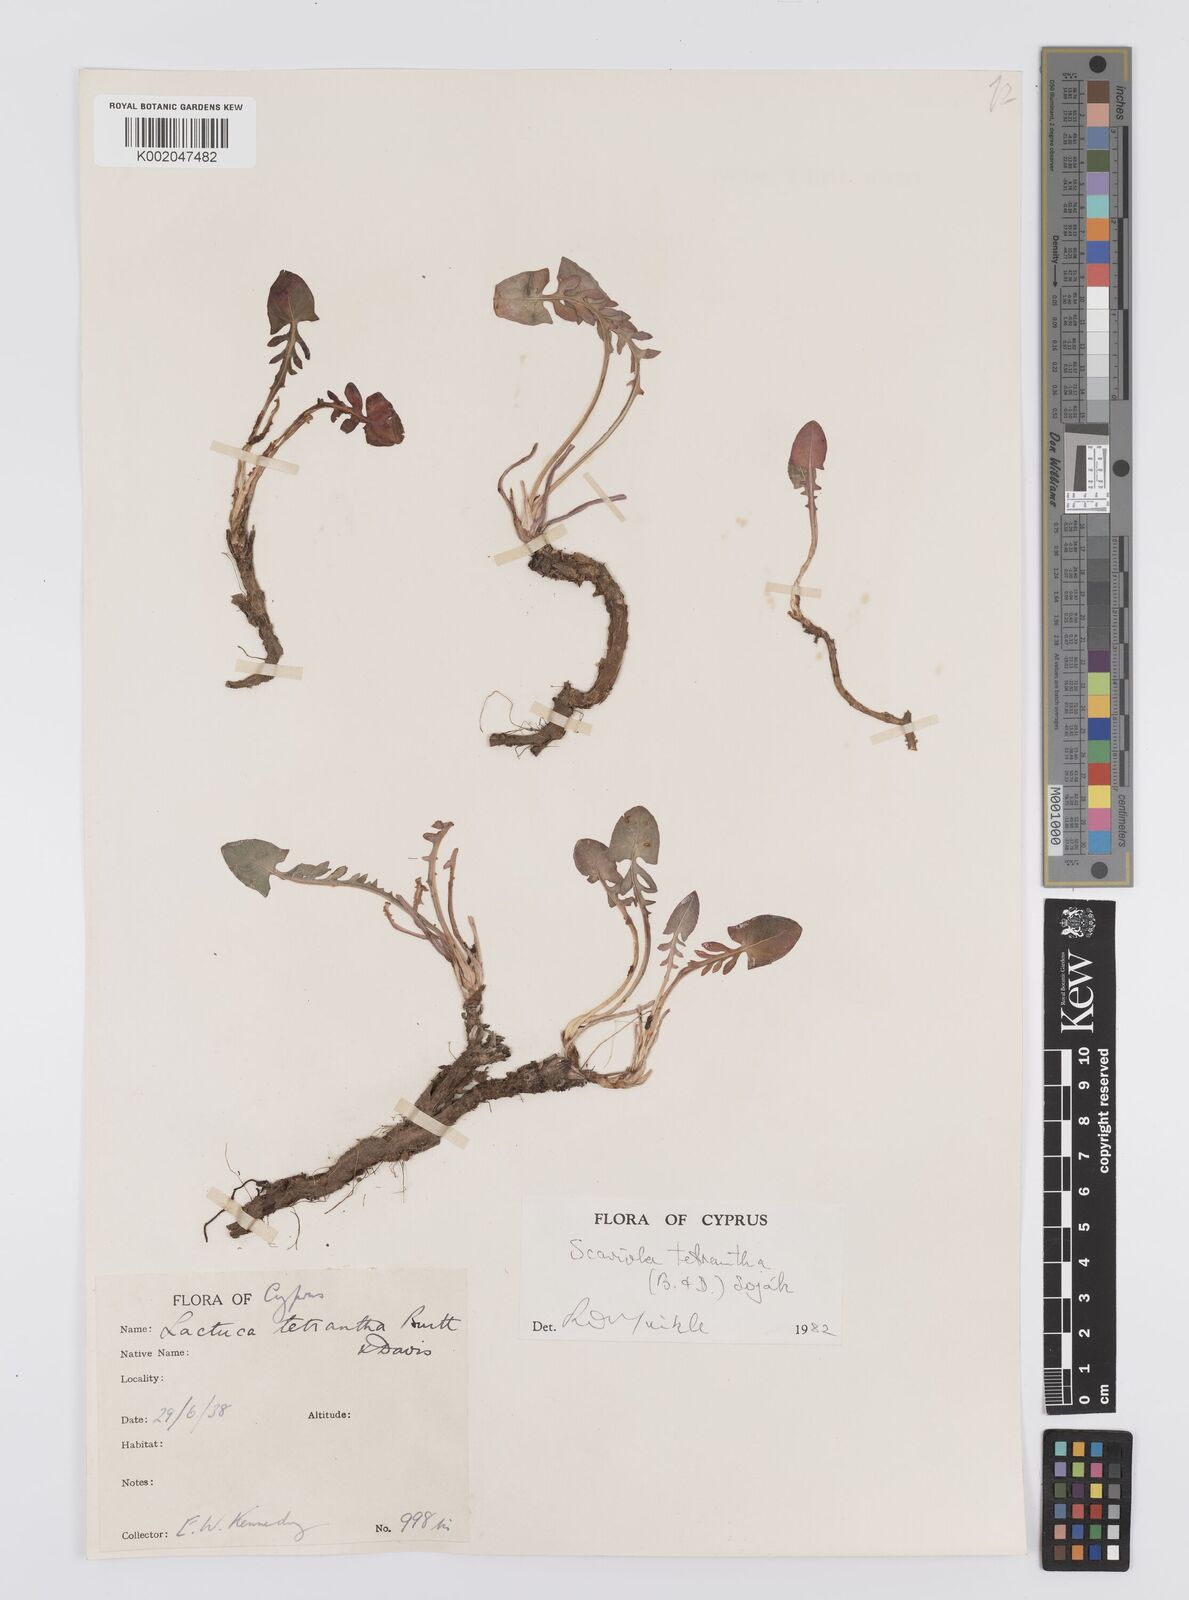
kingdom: Plantae
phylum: Tracheophyta
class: Magnoliopsida
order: Asterales
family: Asteraceae
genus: Lactuca
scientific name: Lactuca tetrantha
